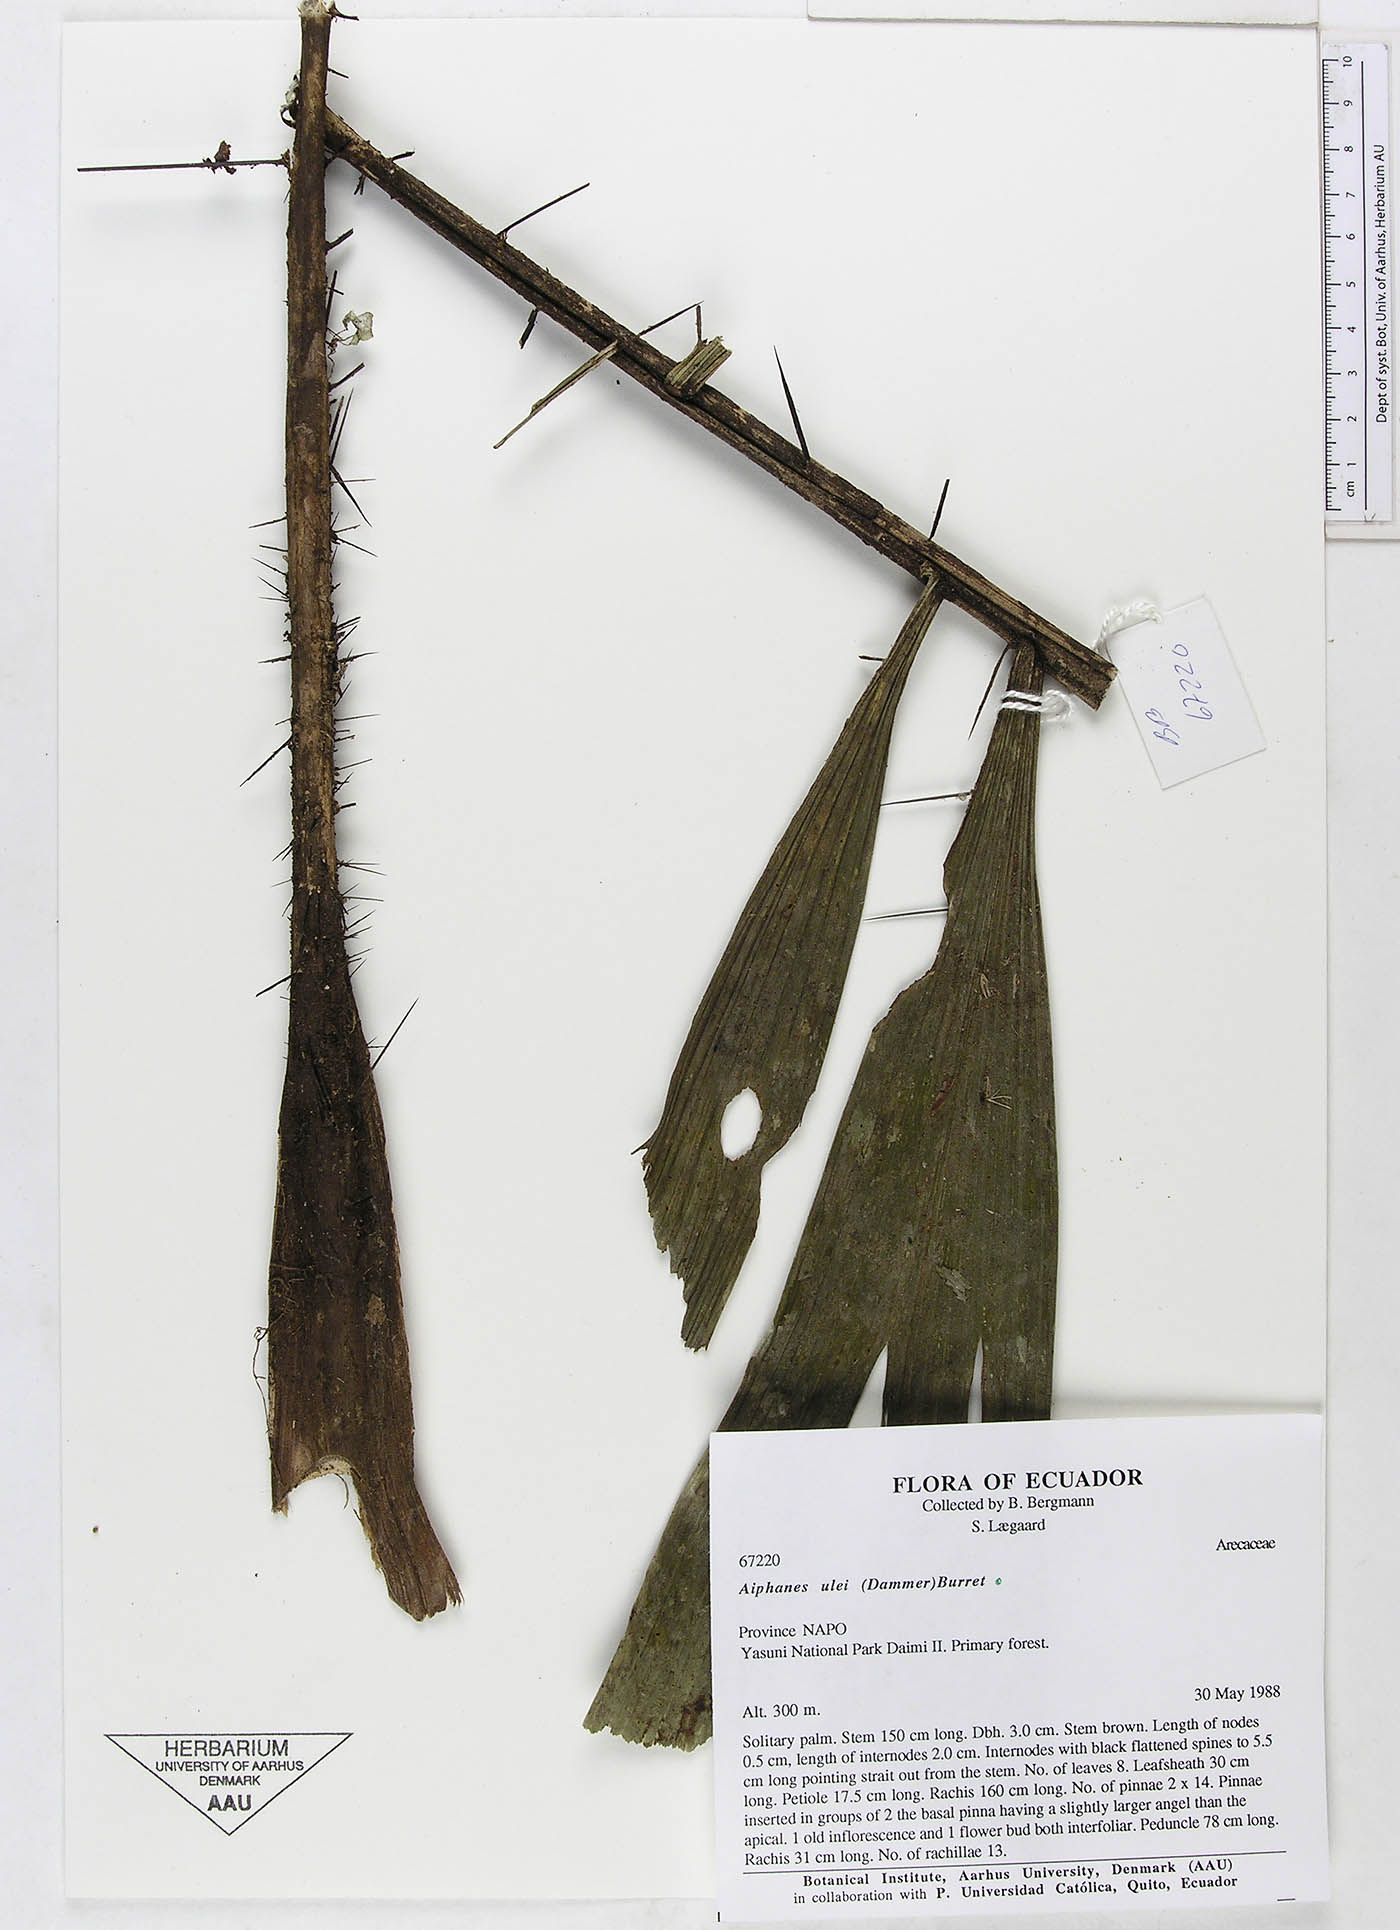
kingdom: Plantae
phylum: Tracheophyta
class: Liliopsida
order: Arecales
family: Arecaceae
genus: Aiphanes
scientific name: Aiphanes ulei
